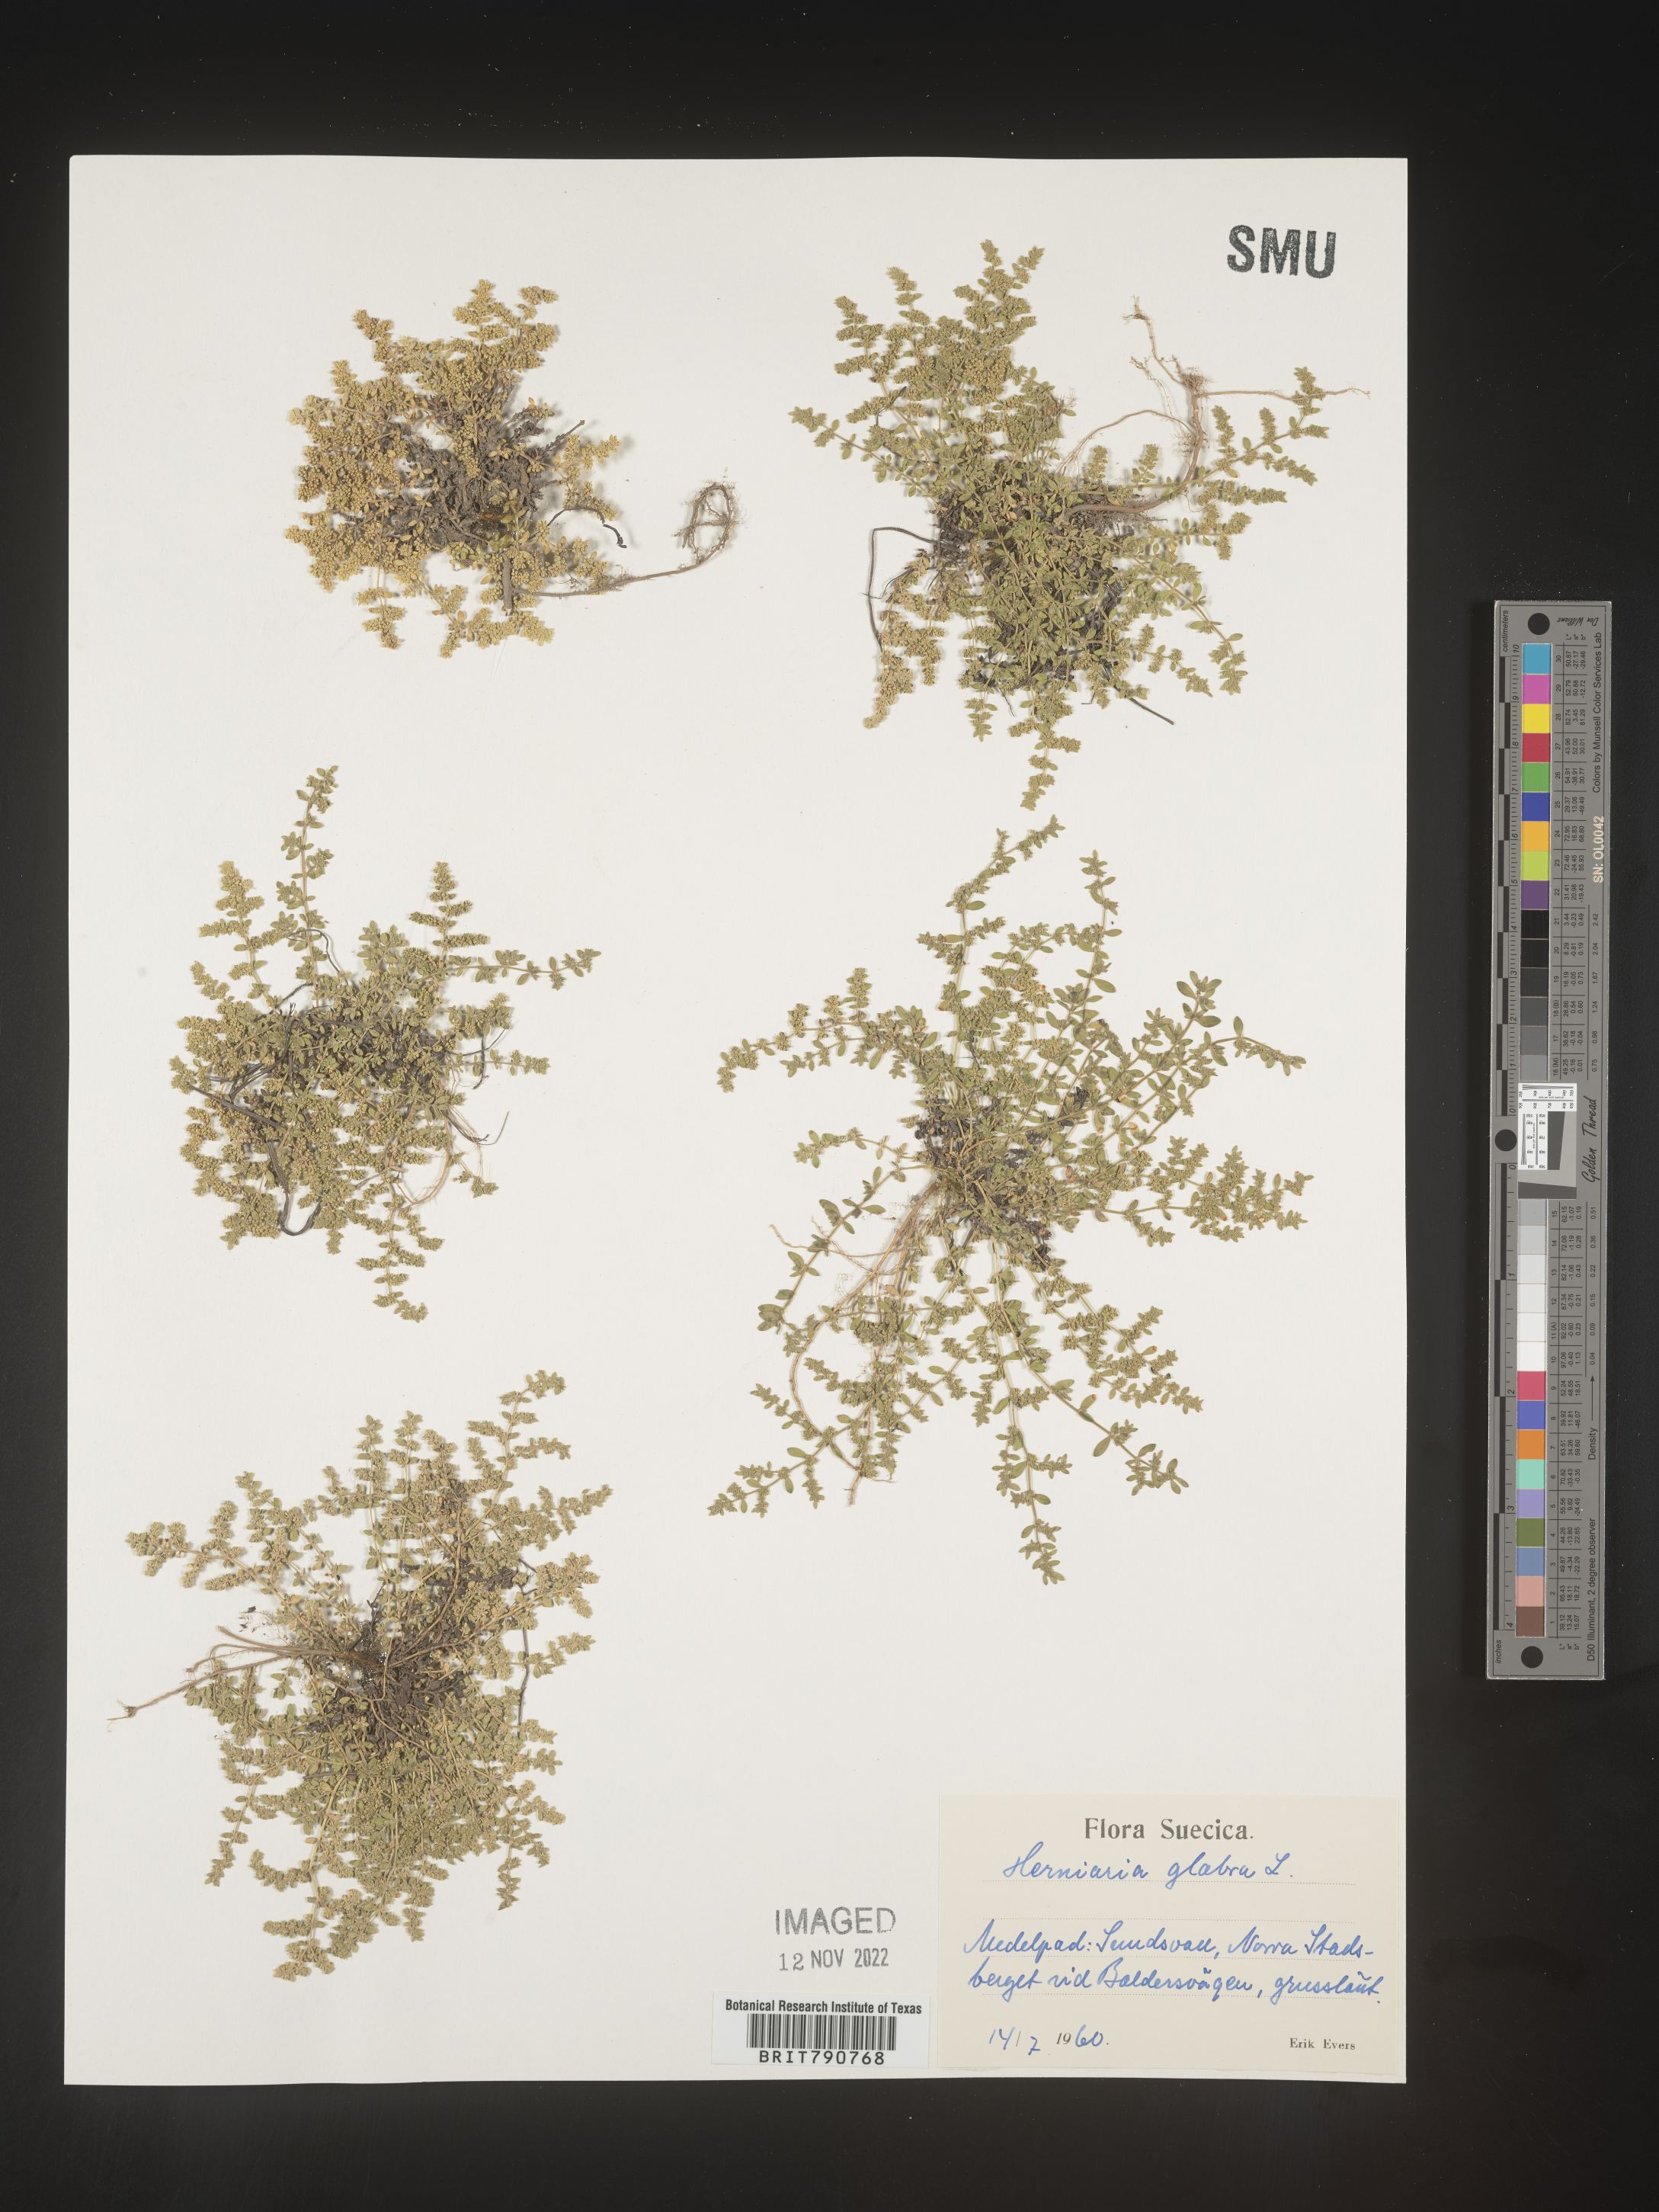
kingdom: Plantae
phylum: Tracheophyta
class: Magnoliopsida
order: Caryophyllales
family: Caryophyllaceae
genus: Herniaria
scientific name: Herniaria
